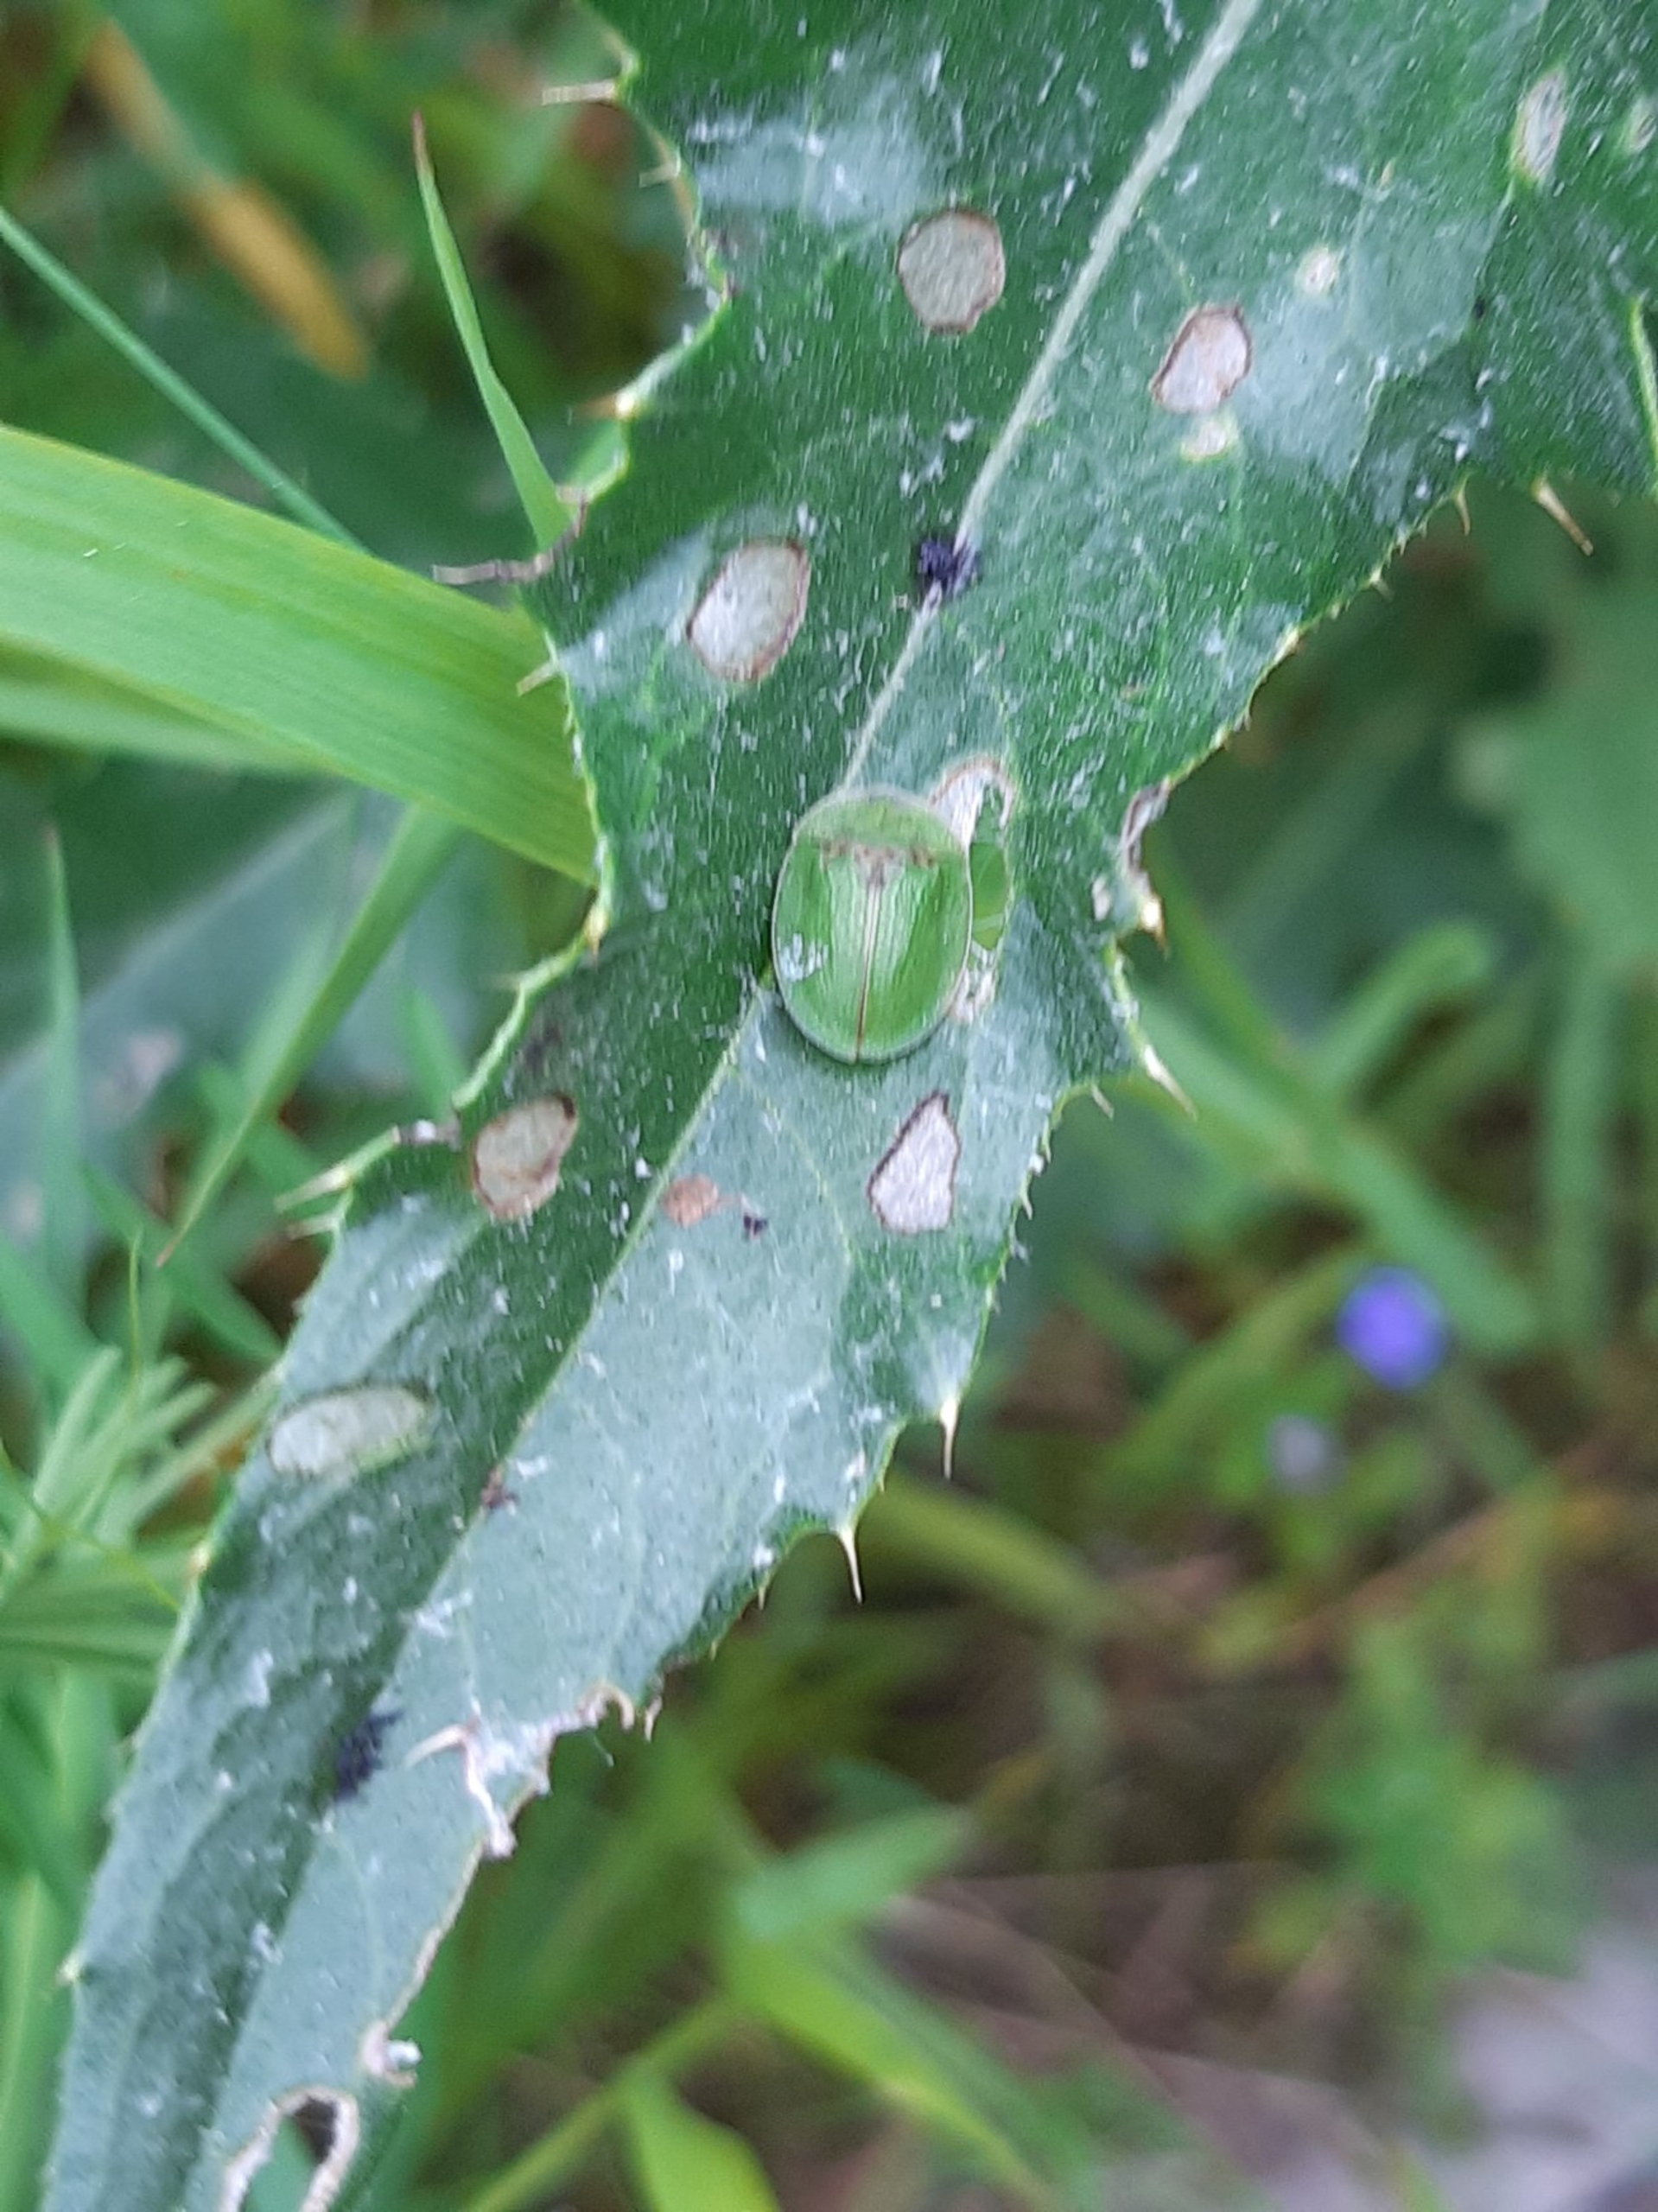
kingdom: Animalia
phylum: Arthropoda
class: Insecta
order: Coleoptera
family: Chrysomelidae
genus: Cassida
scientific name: Cassida rubiginosa
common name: Tidselskjoldbille
